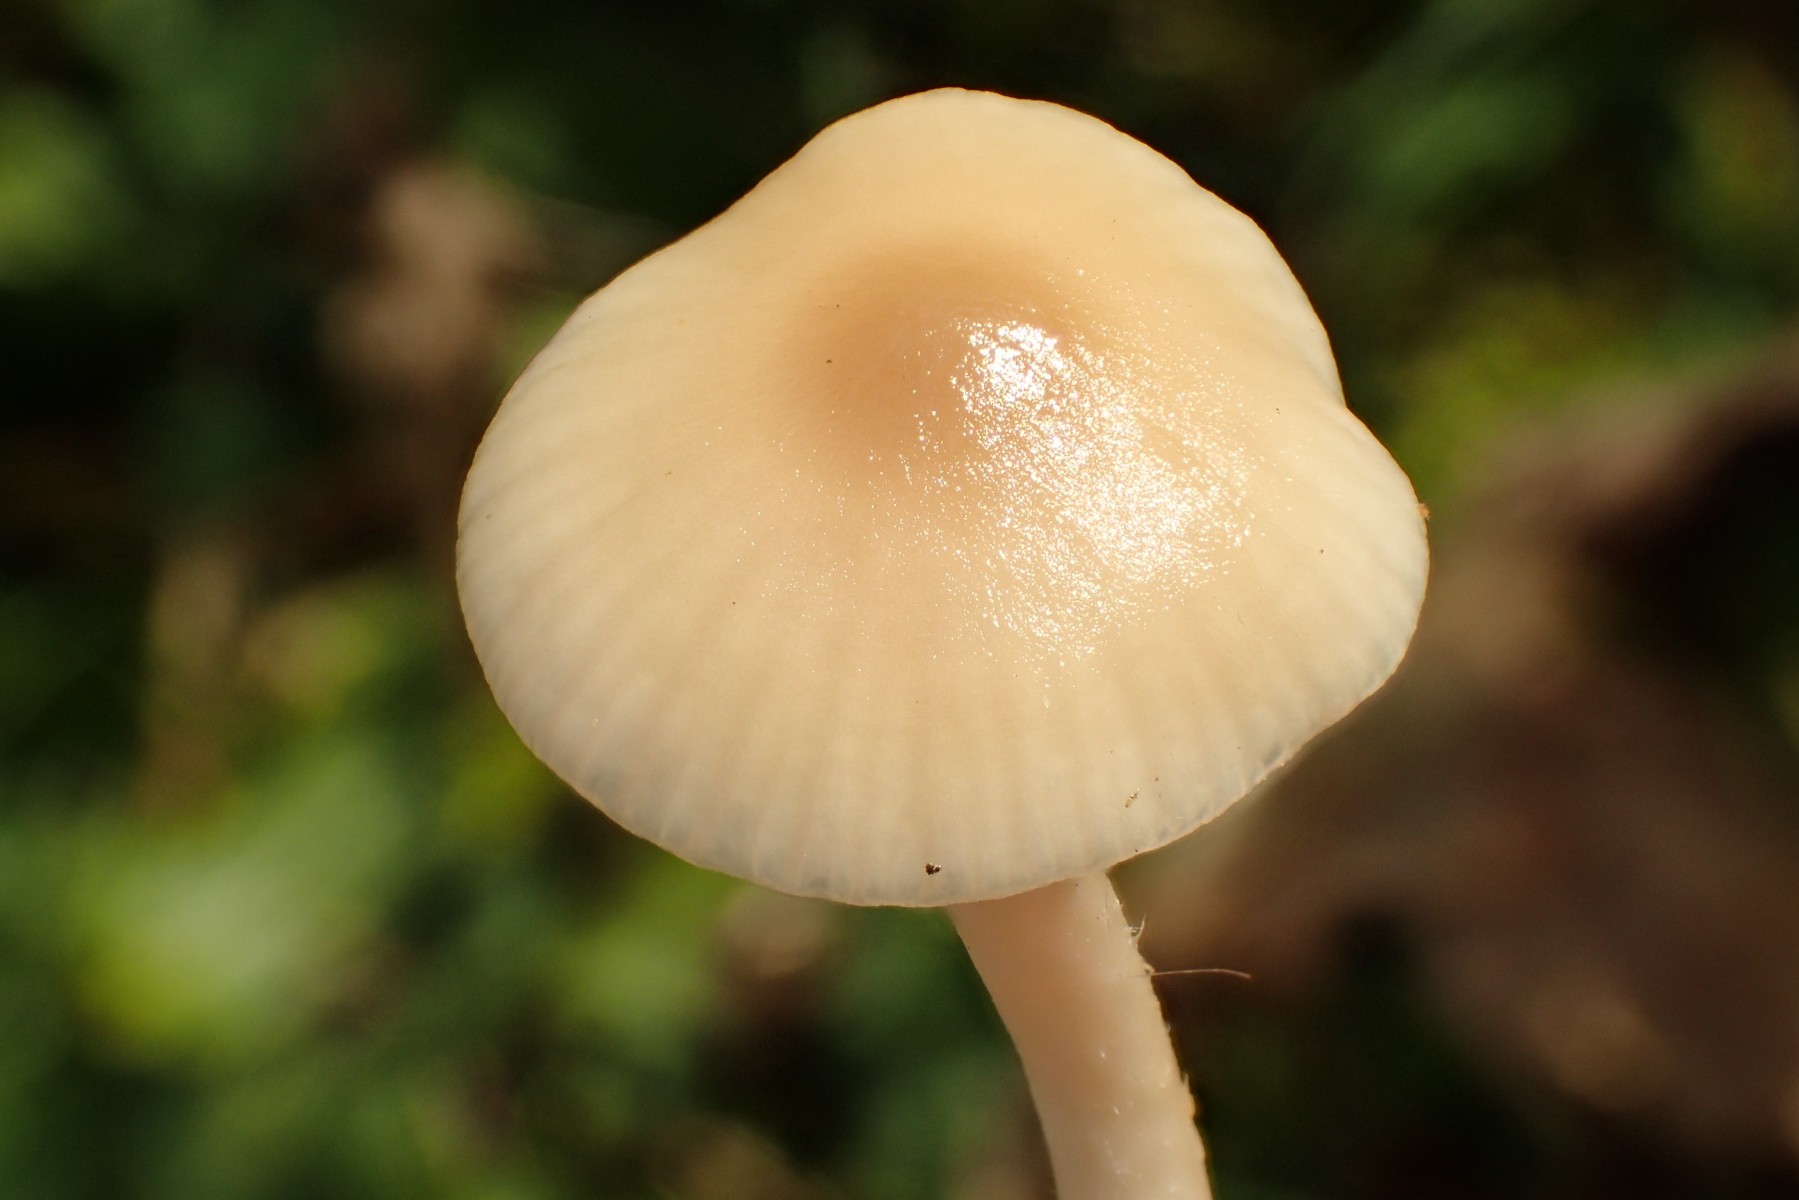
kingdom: Fungi
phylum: Basidiomycota
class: Agaricomycetes
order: Agaricales
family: Hygrophoraceae
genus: Cuphophyllus
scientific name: Cuphophyllus virgineus
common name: brunøjet vokshat
